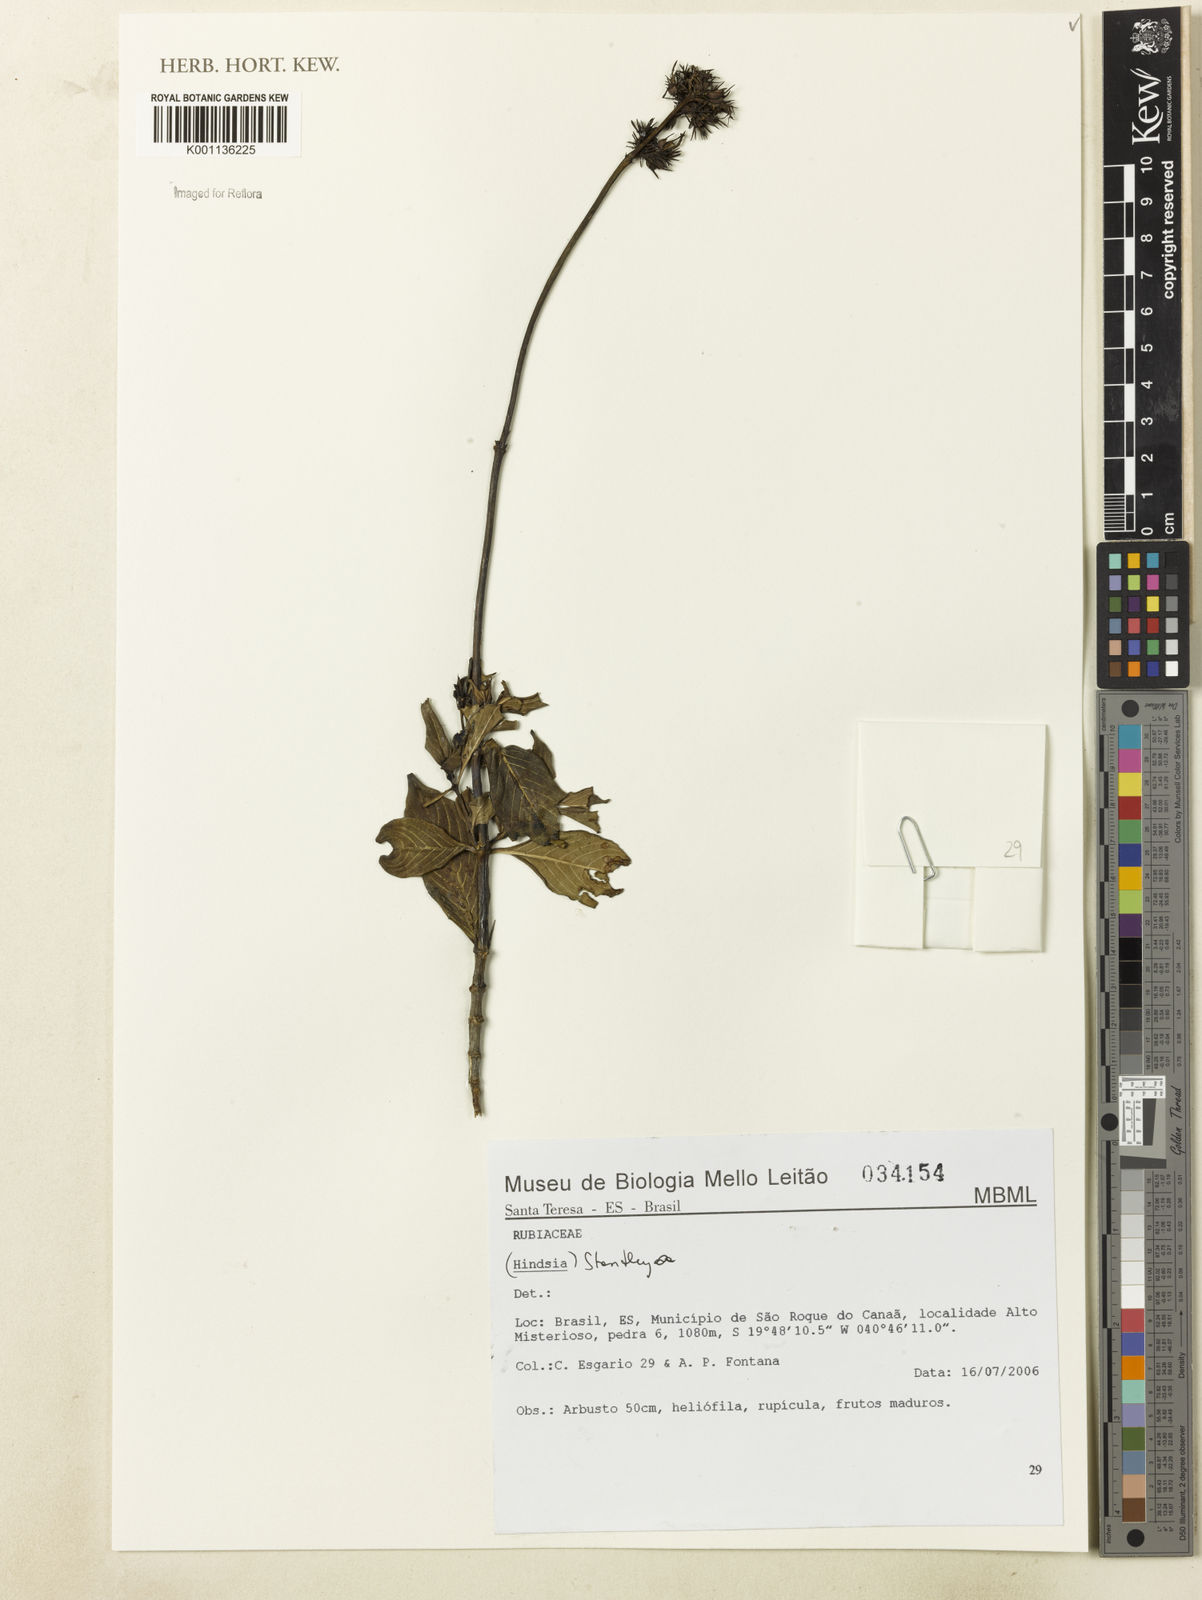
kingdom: Plantae
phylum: Tracheophyta
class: Magnoliopsida
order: Gentianales
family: Rubiaceae
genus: Standleya
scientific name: Standleya
